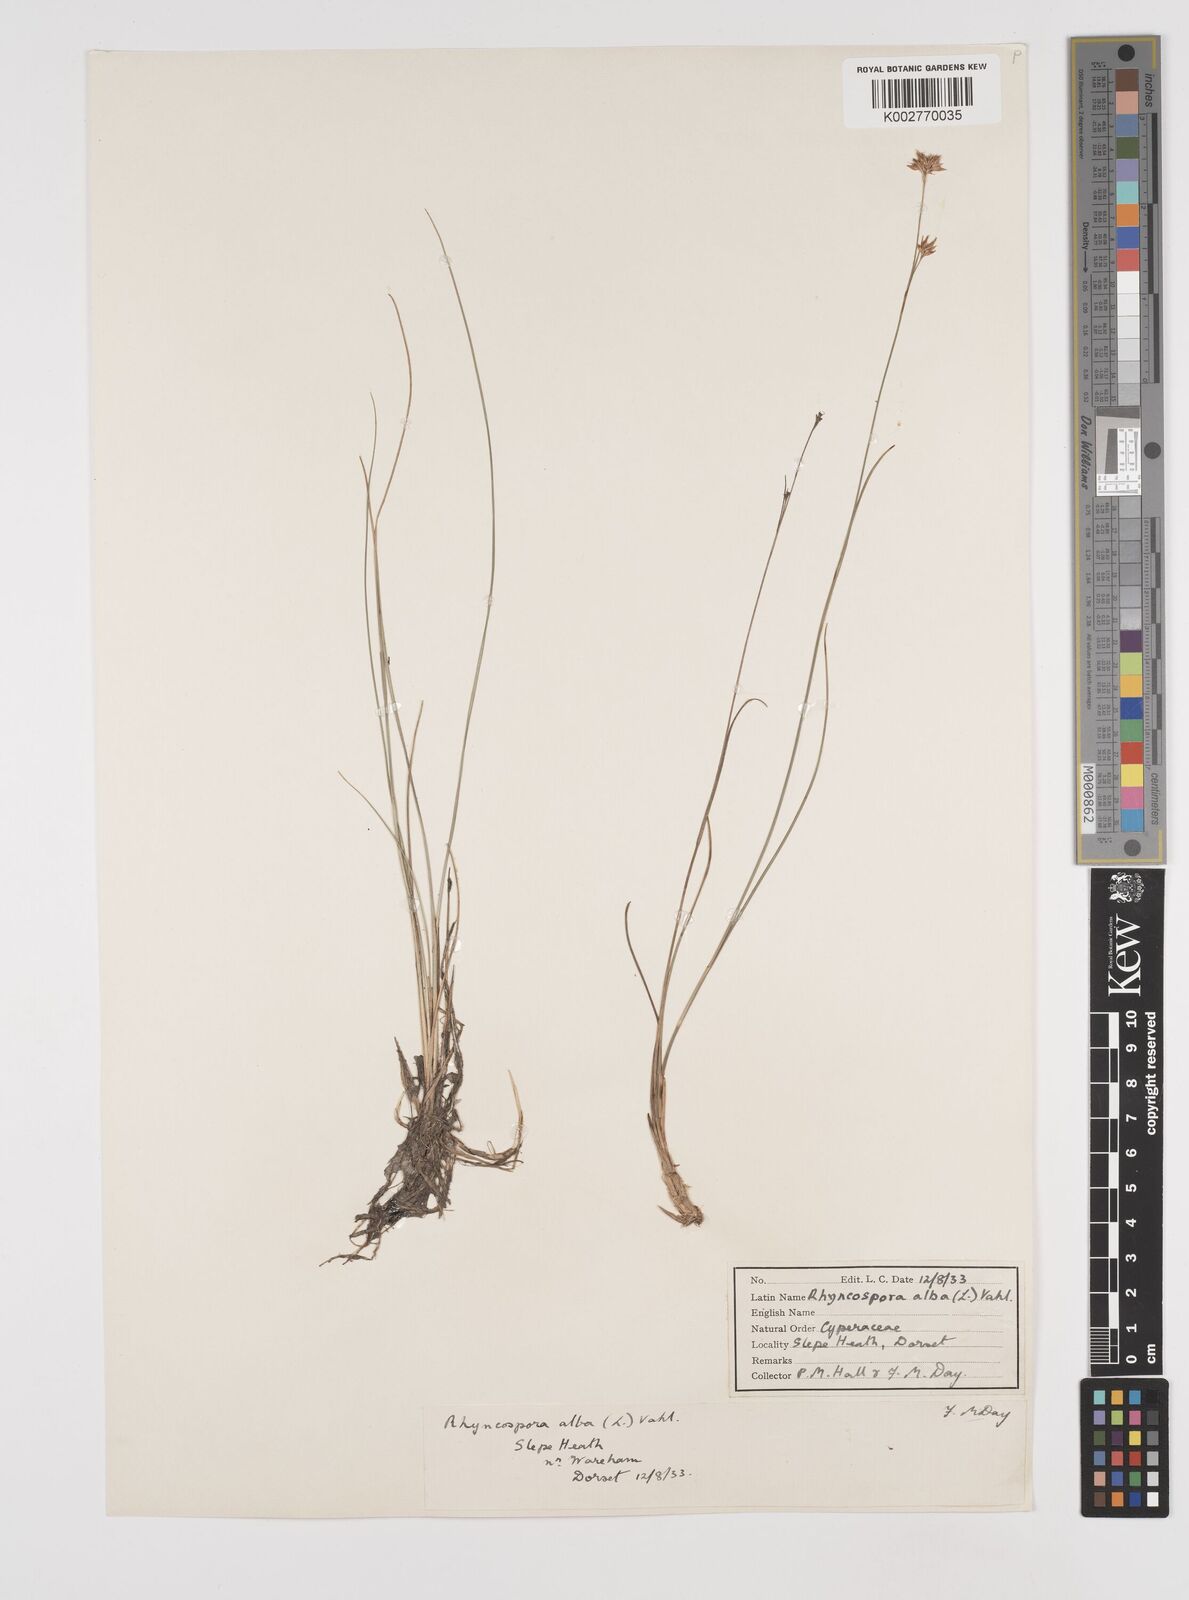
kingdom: Plantae
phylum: Tracheophyta
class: Liliopsida
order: Poales
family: Cyperaceae
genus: Rhynchospora
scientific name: Rhynchospora alba
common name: White beak-sedge
